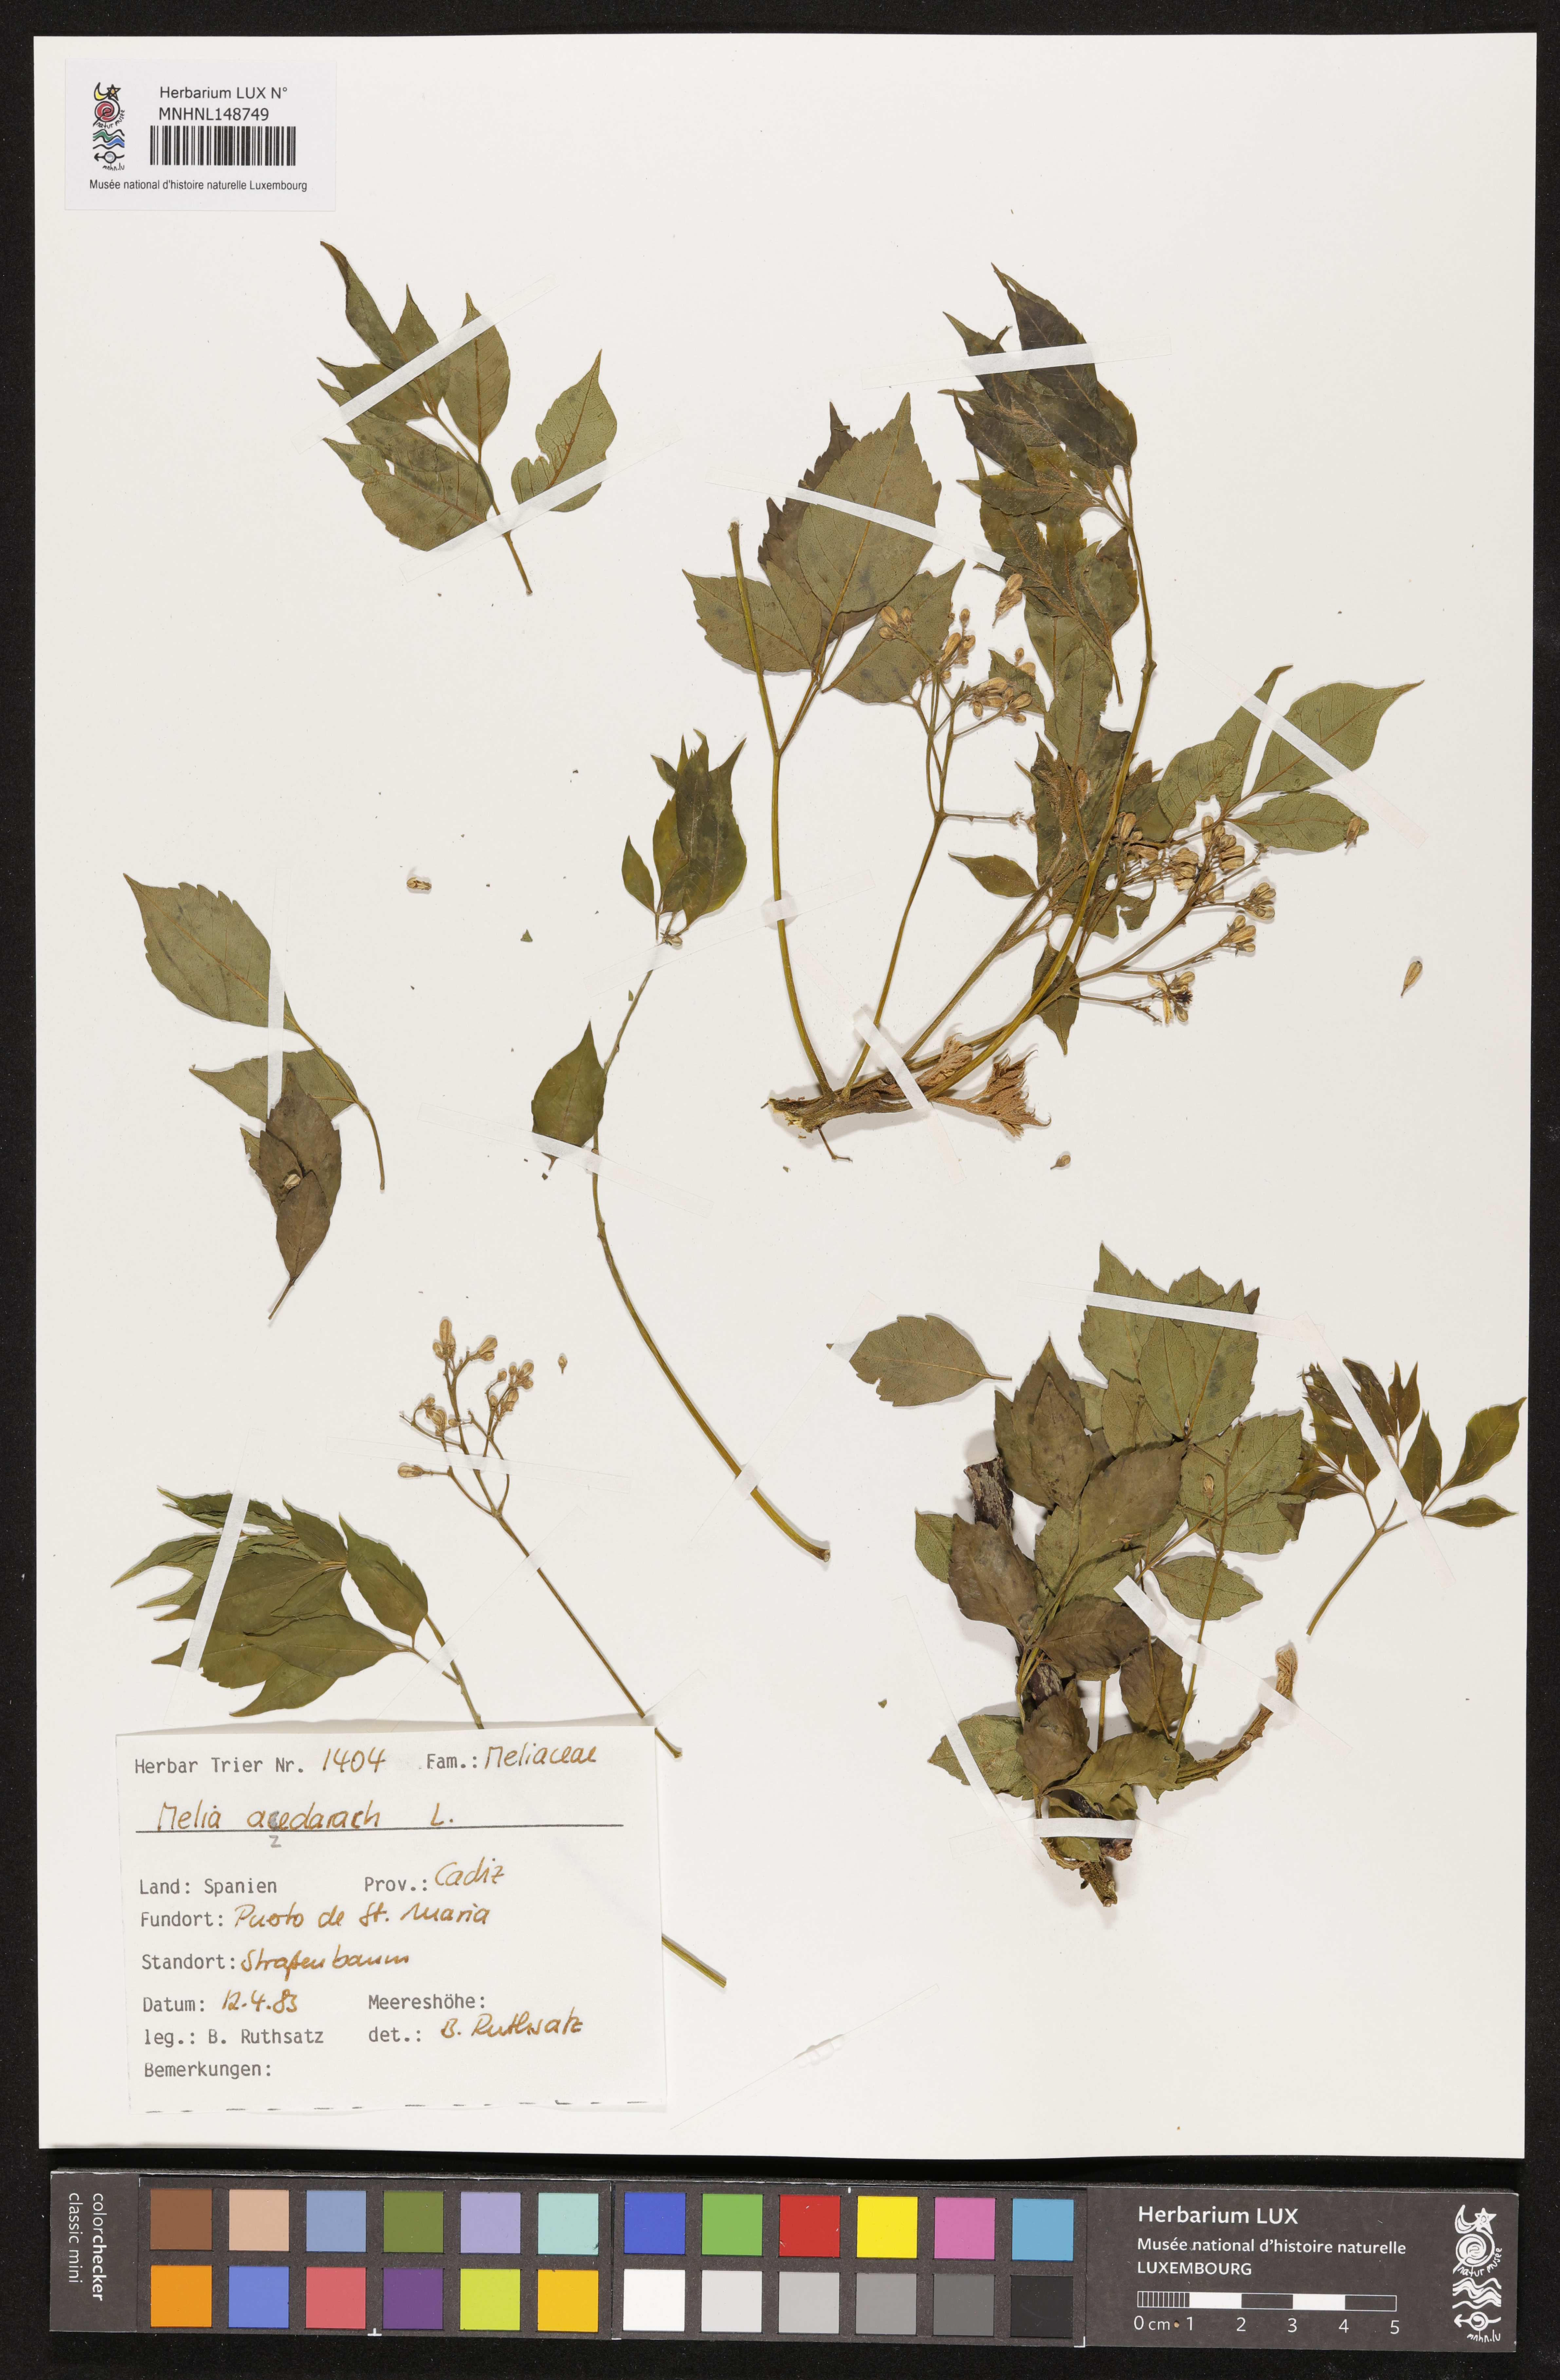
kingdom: Plantae
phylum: Tracheophyta
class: Magnoliopsida
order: Sapindales
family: Meliaceae
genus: Melia
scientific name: Melia azedarach
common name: Chinaberrytree
